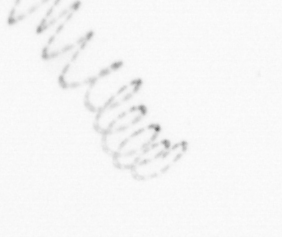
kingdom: Chromista
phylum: Ochrophyta
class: Bacillariophyceae
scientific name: Bacillariophyceae
